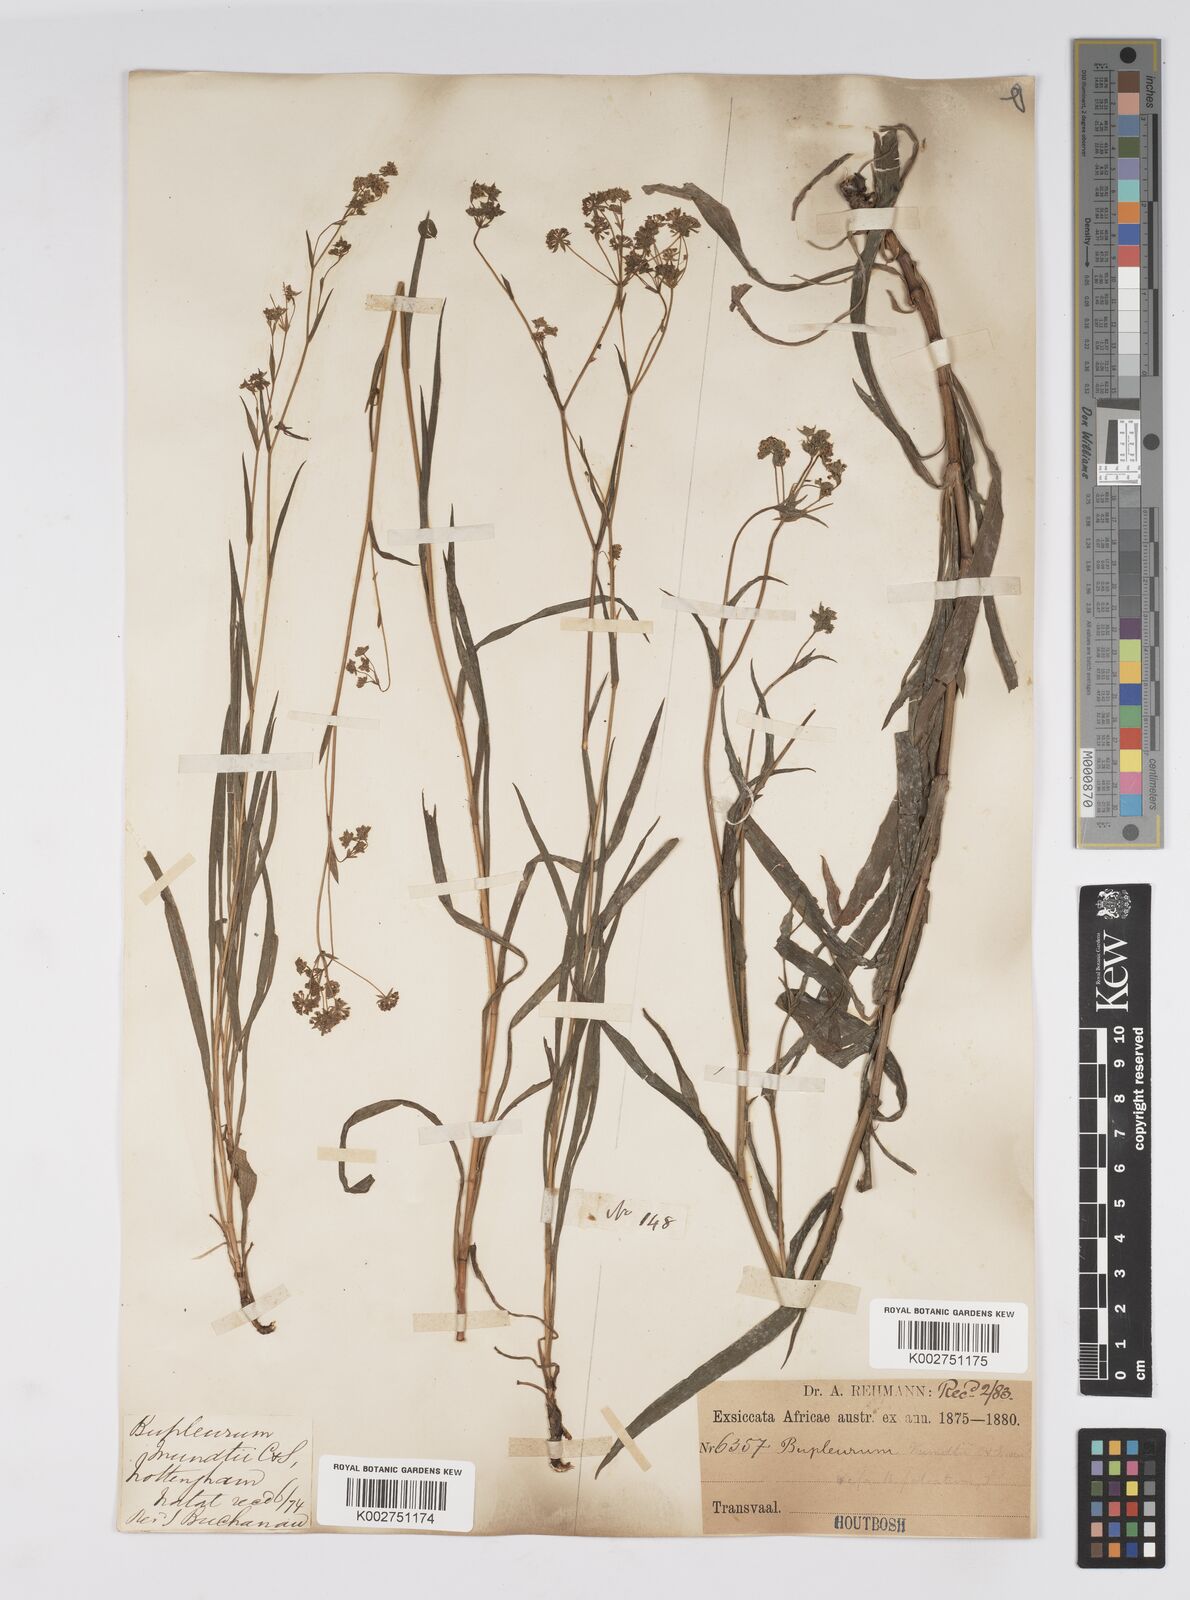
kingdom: Plantae
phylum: Tracheophyta
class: Magnoliopsida
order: Apiales
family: Apiaceae
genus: Bupleurum
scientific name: Bupleurum mundii
